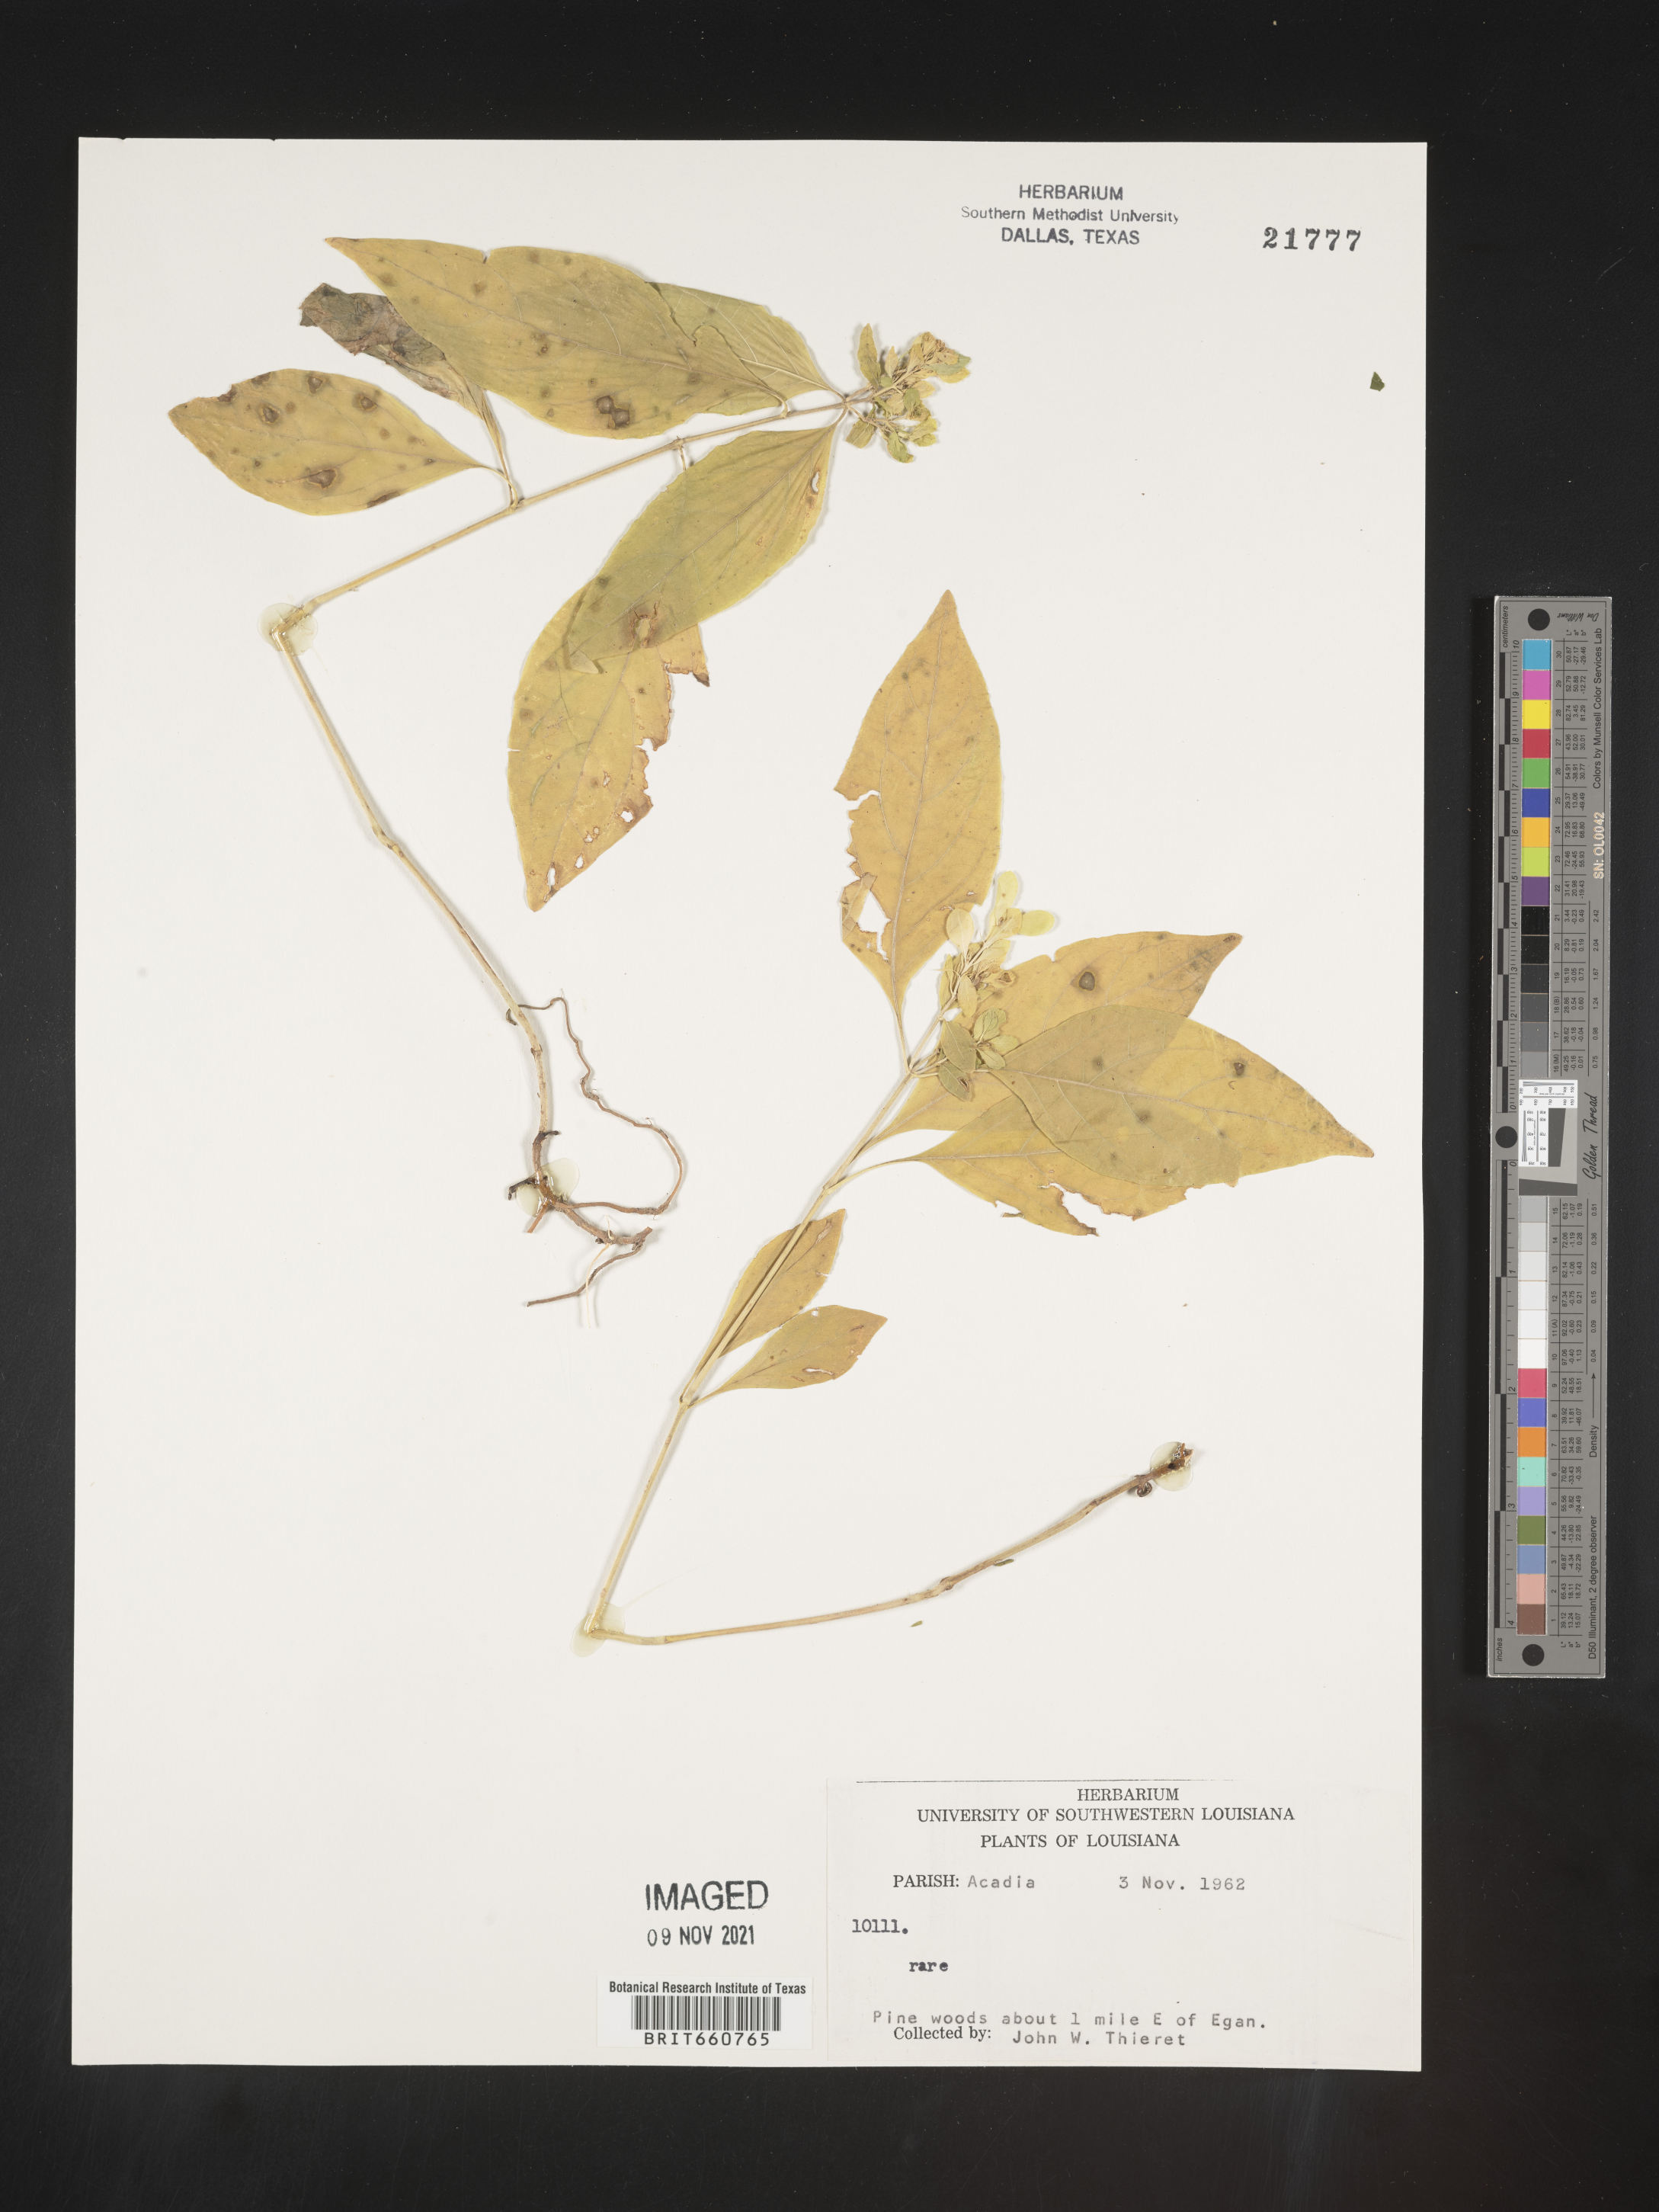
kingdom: Plantae
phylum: Tracheophyta
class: Magnoliopsida
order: Lamiales
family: Acanthaceae
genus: Yeatesia
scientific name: Yeatesia
